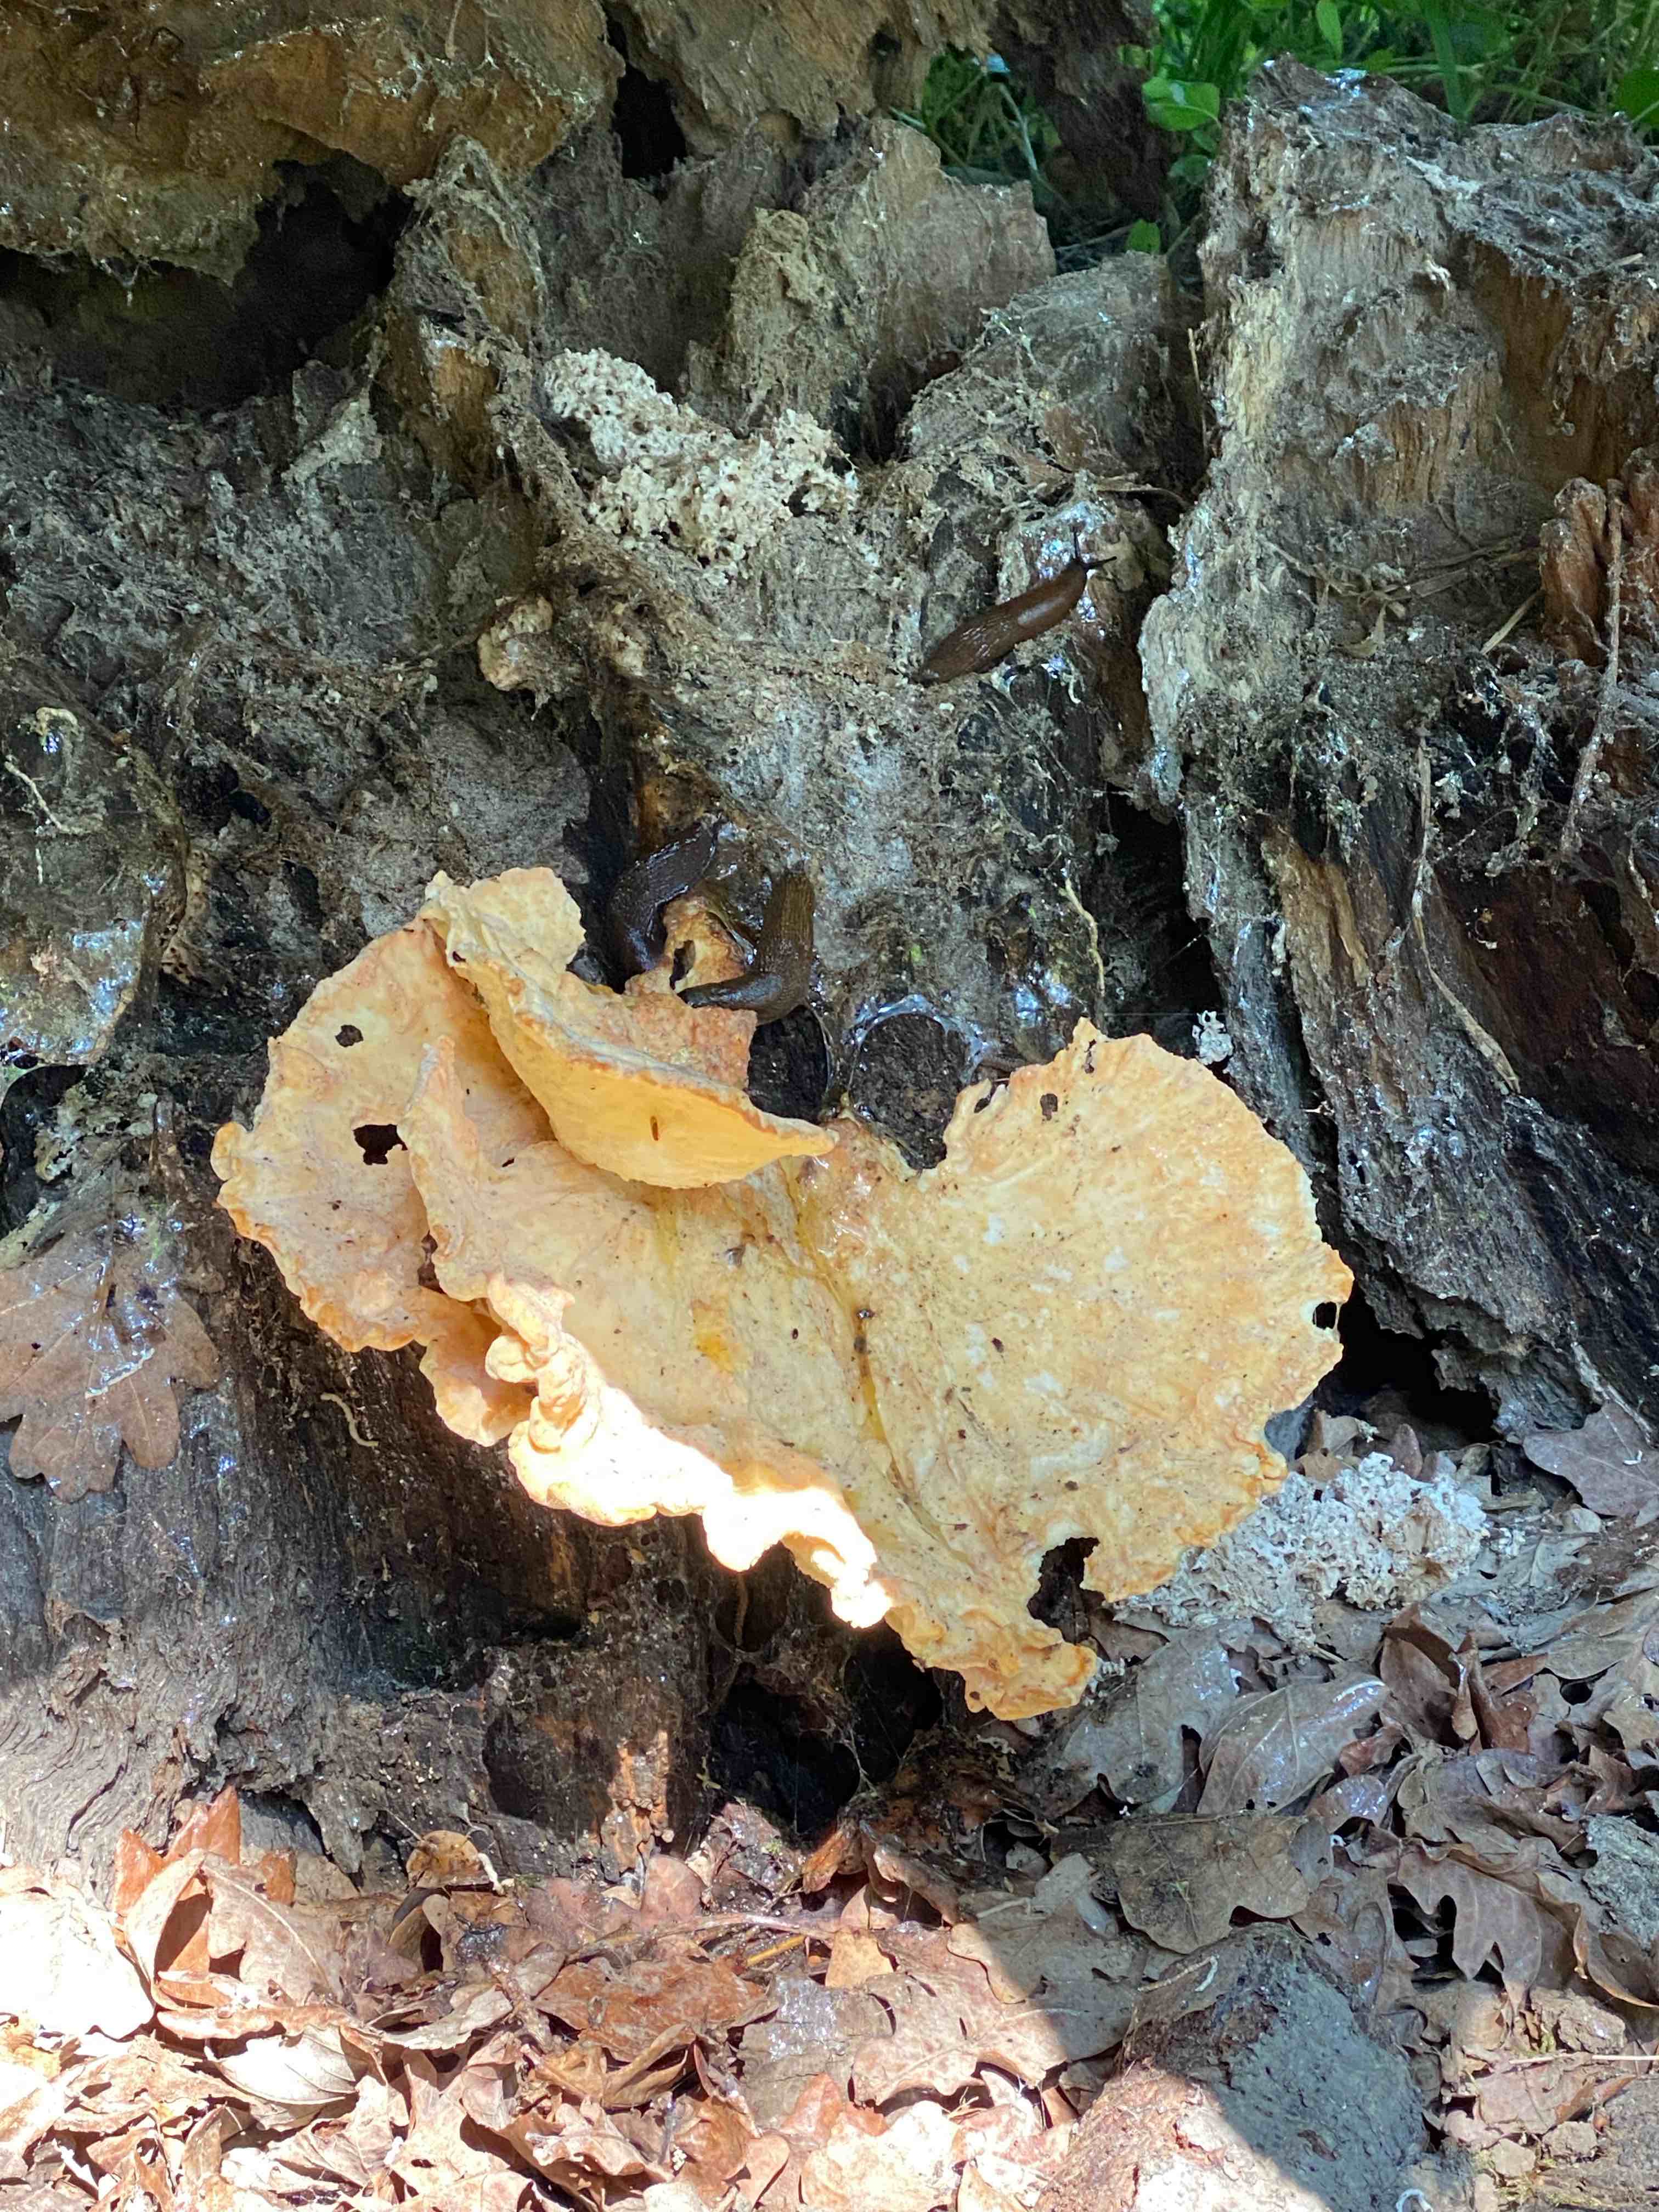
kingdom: Fungi
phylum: Basidiomycota
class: Agaricomycetes
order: Polyporales
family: Laetiporaceae
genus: Laetiporus
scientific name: Laetiporus sulphureus
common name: svovlporesvamp
